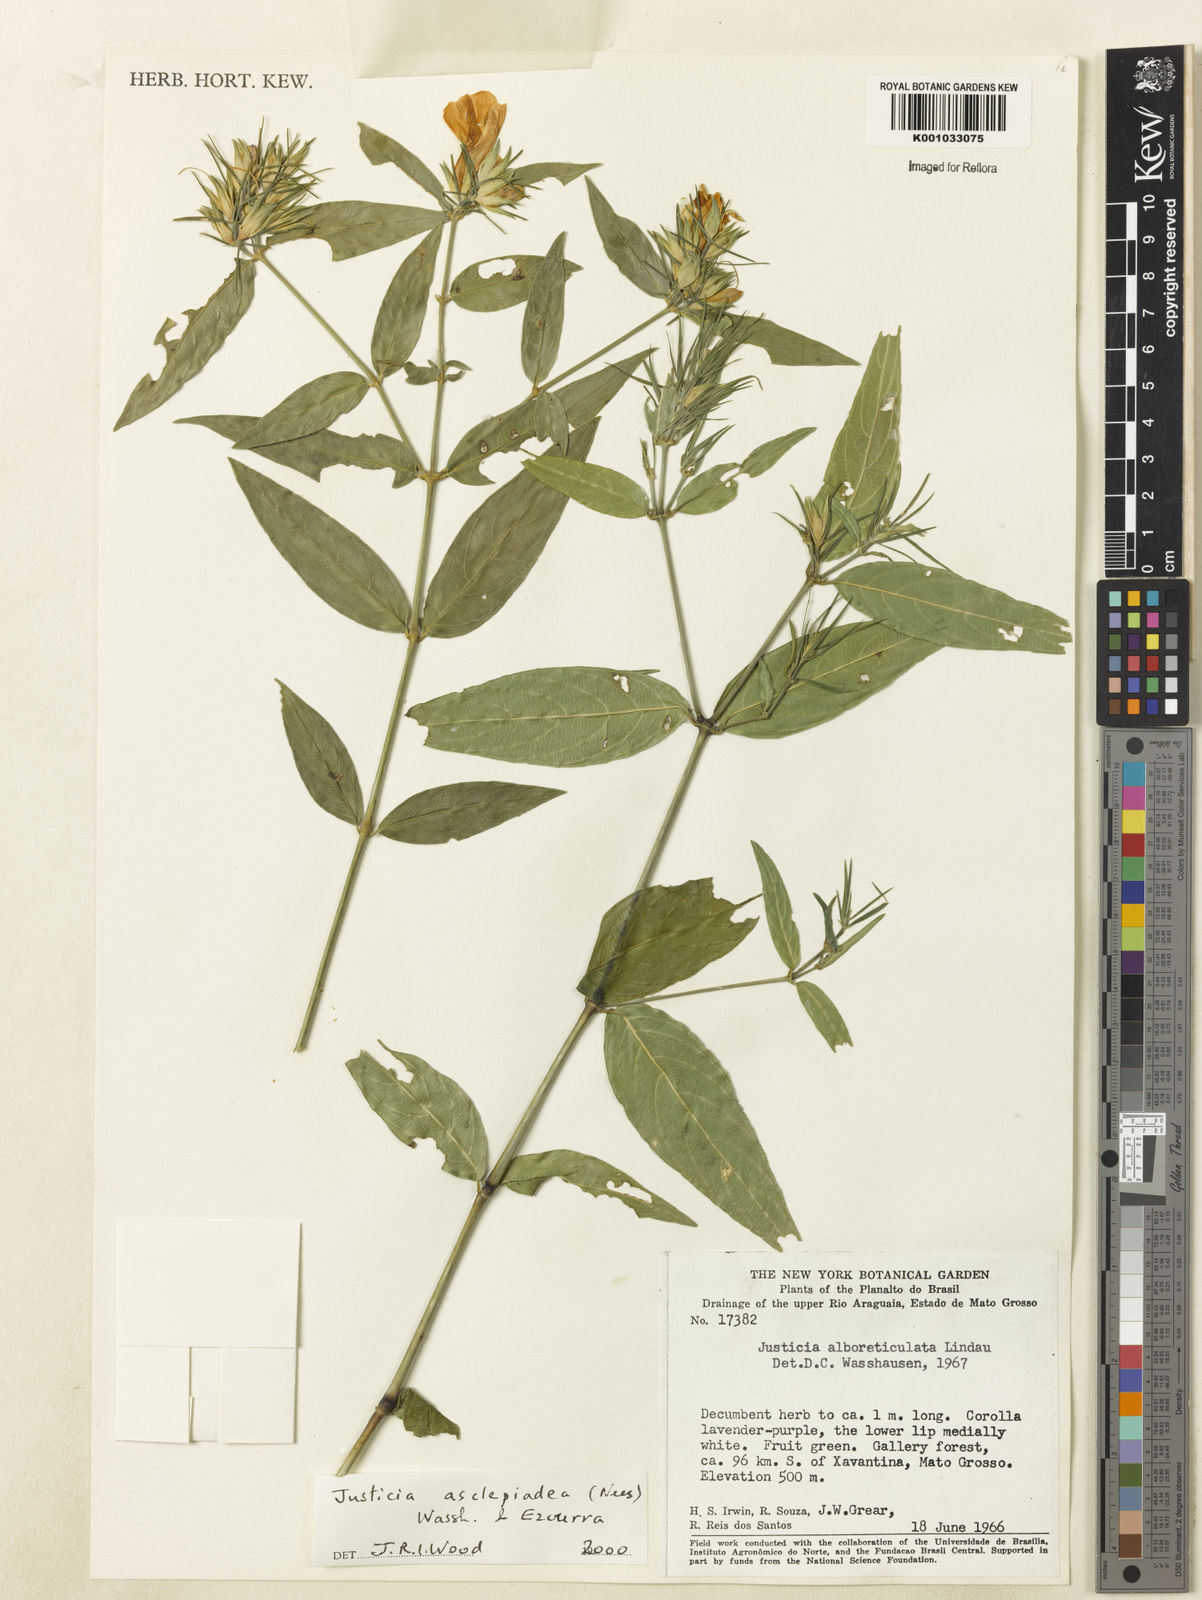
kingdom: Plantae
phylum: Tracheophyta
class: Magnoliopsida
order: Lamiales
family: Acanthaceae
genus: Justicia
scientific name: Justicia asclepiadea
